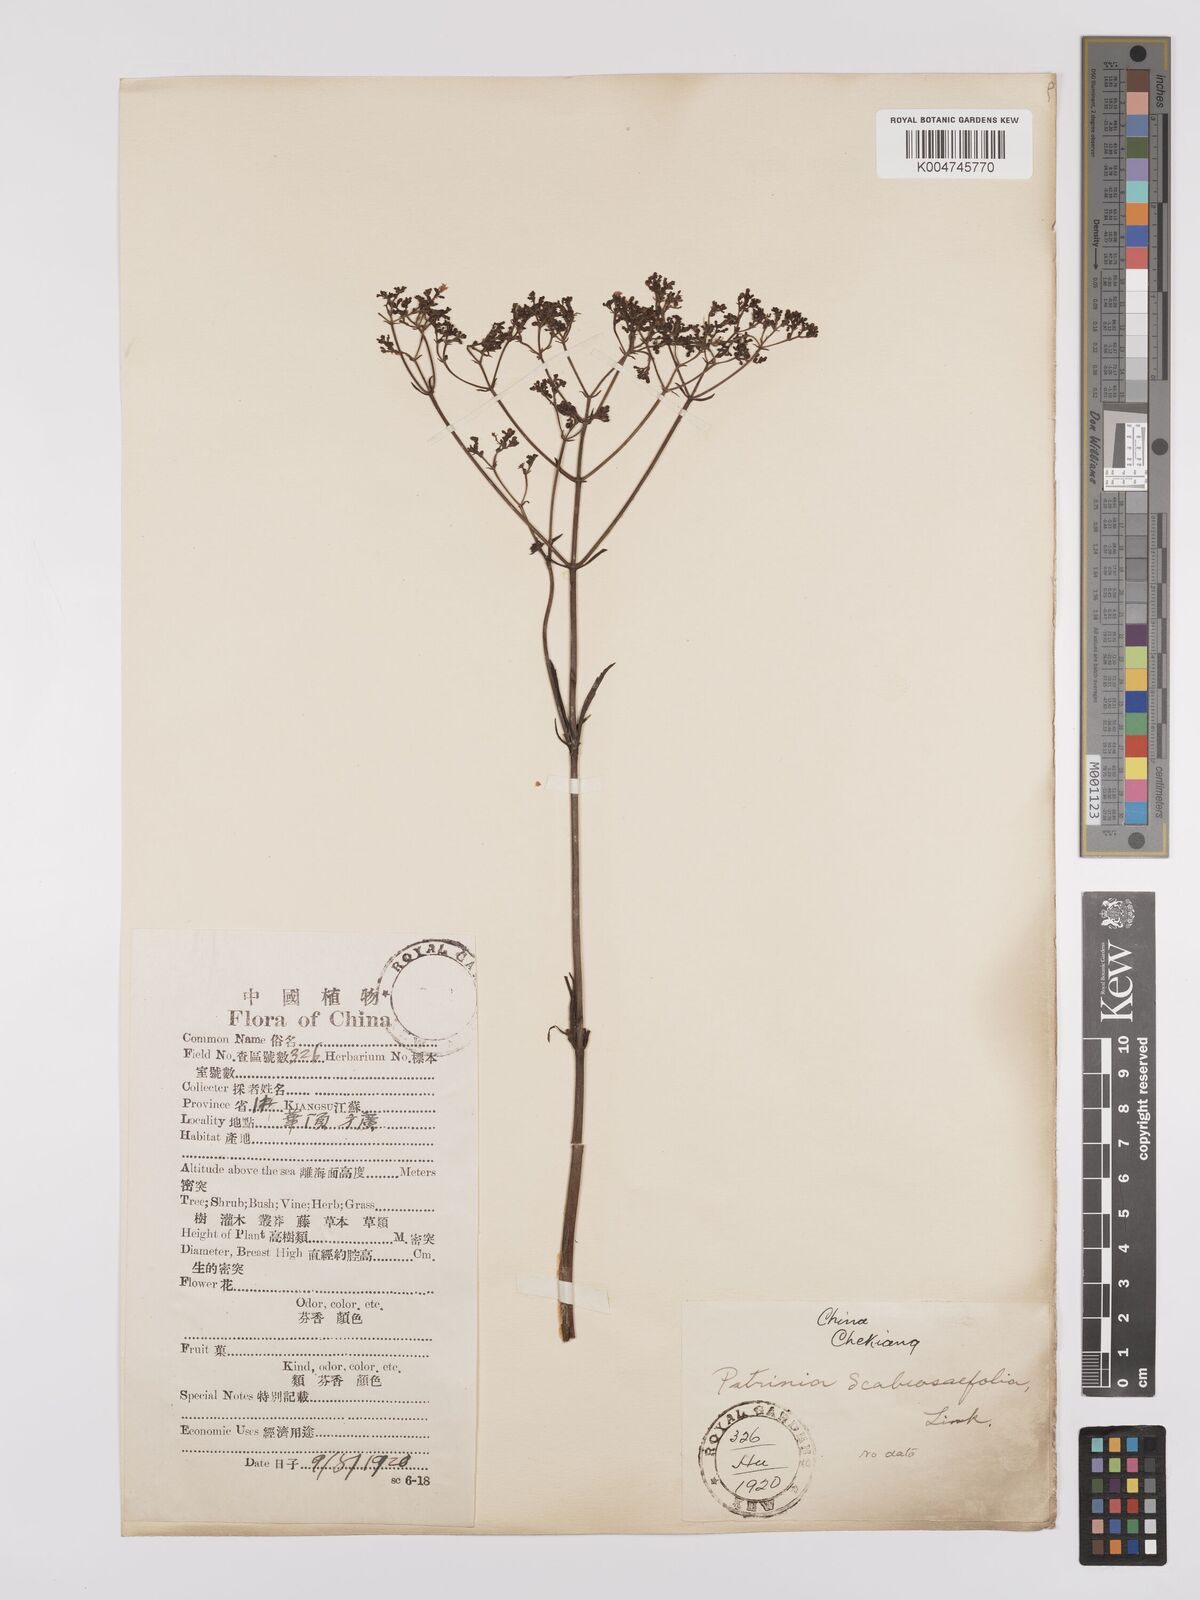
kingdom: Plantae
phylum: Tracheophyta
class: Magnoliopsida
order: Dipsacales
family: Caprifoliaceae
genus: Patrinia
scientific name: Patrinia
